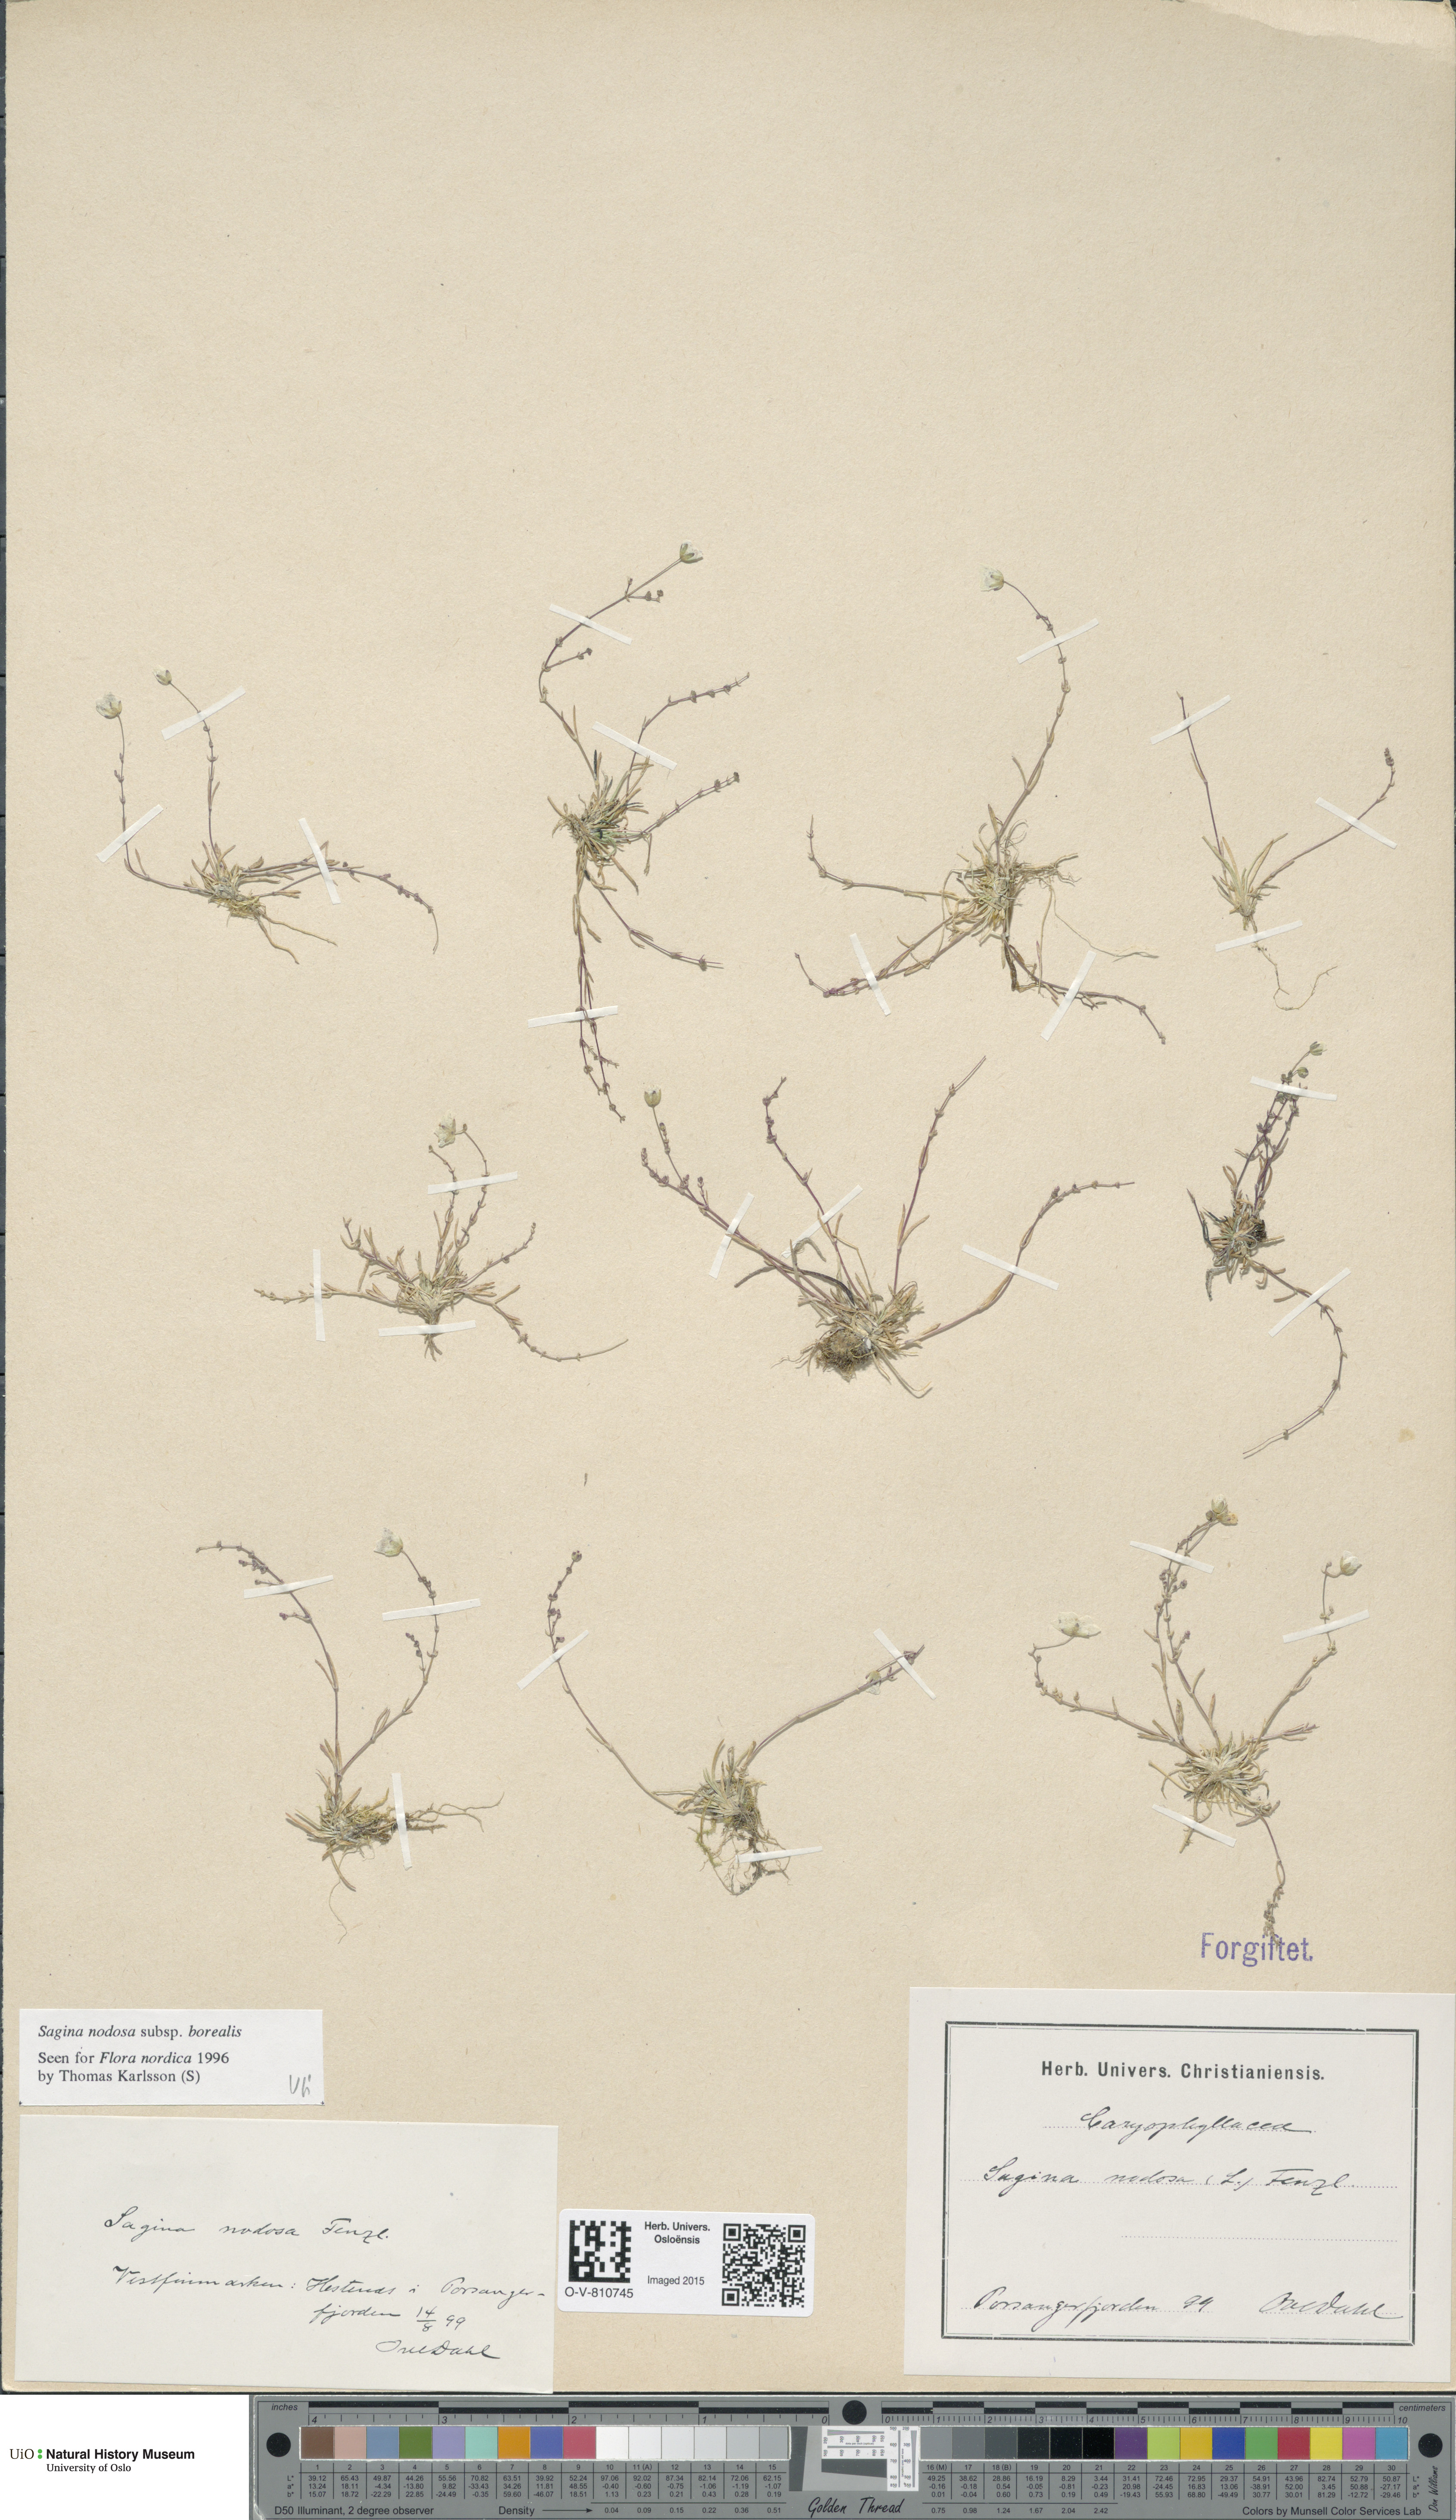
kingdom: Plantae
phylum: Tracheophyta
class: Magnoliopsida
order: Caryophyllales
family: Caryophyllaceae
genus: Sagina
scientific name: Sagina nodosa
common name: Knotted pearlwort
